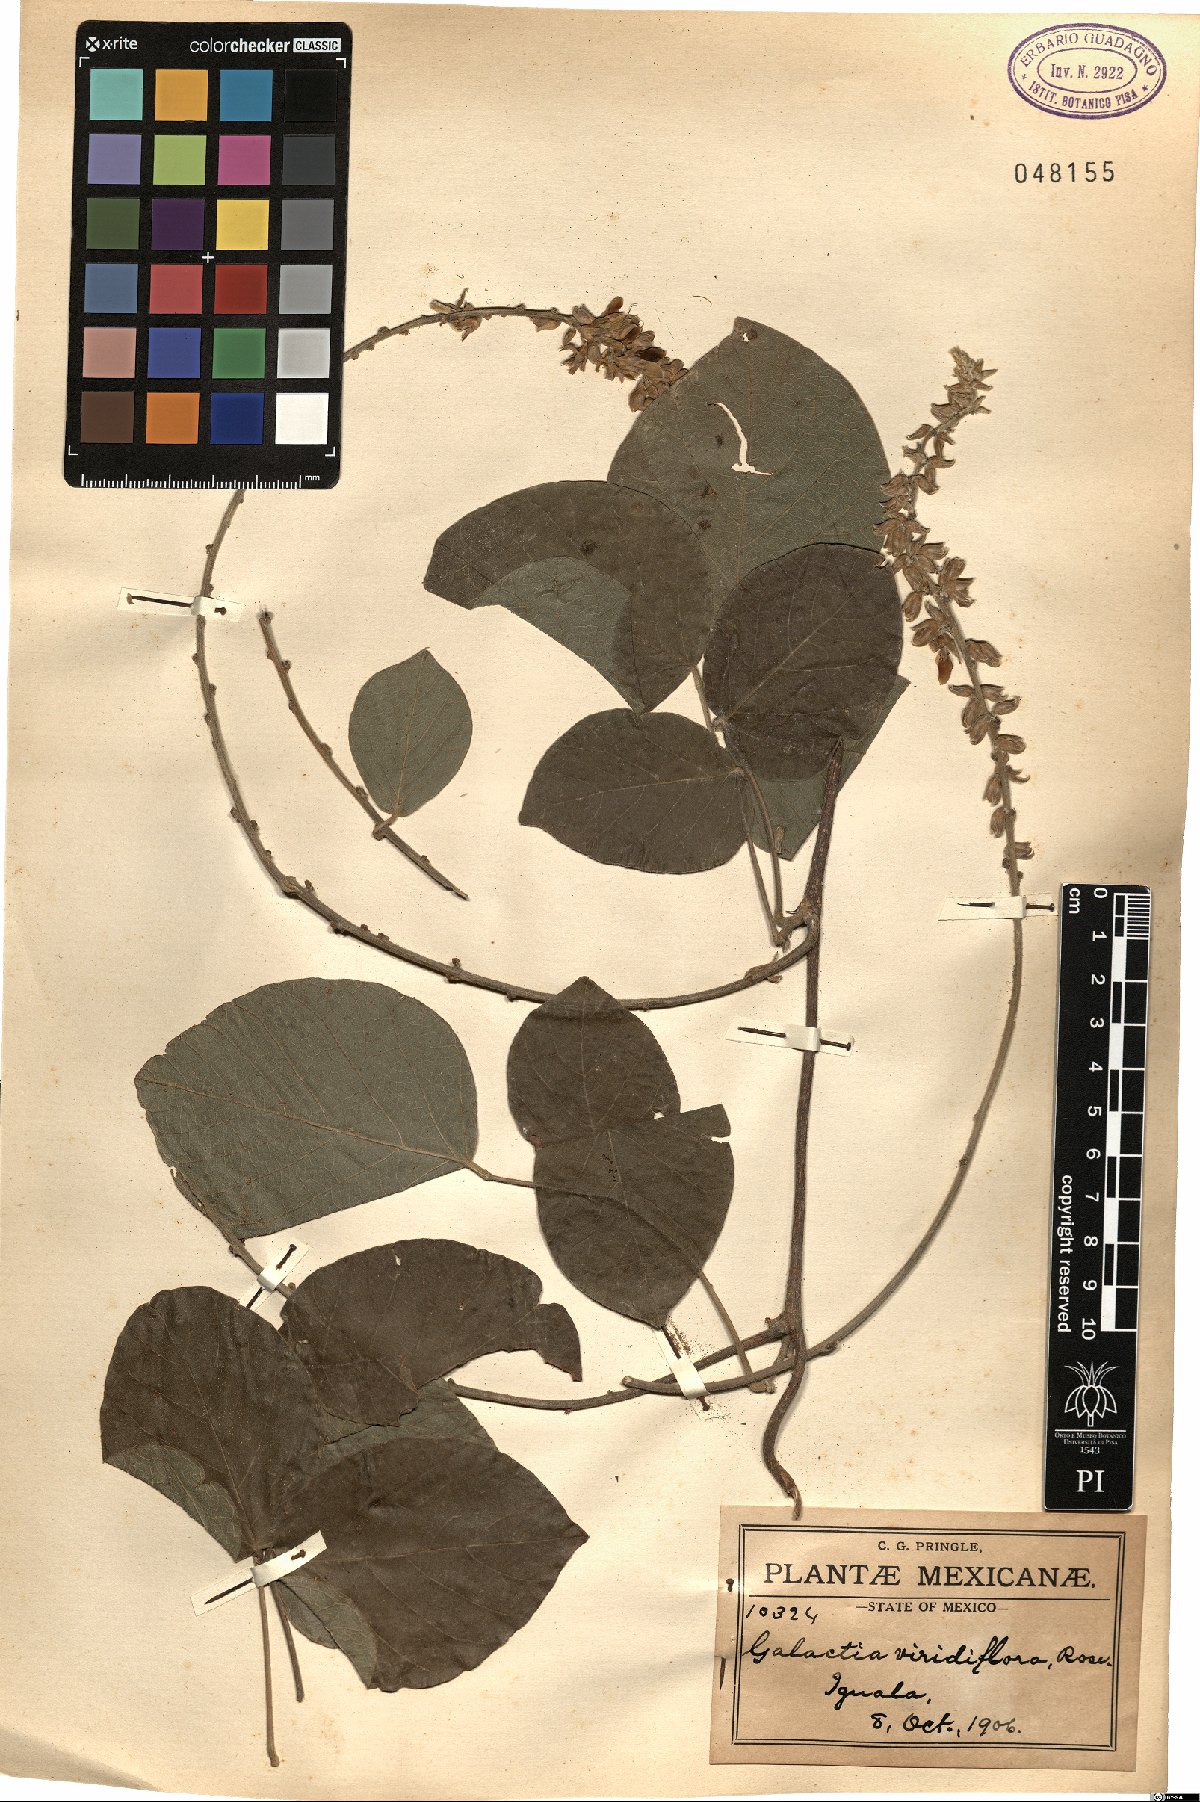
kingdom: Plantae
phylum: Tracheophyta
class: Magnoliopsida
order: Fabales
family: Fabaceae
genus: Lackeya
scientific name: Lackeya viridiflora
